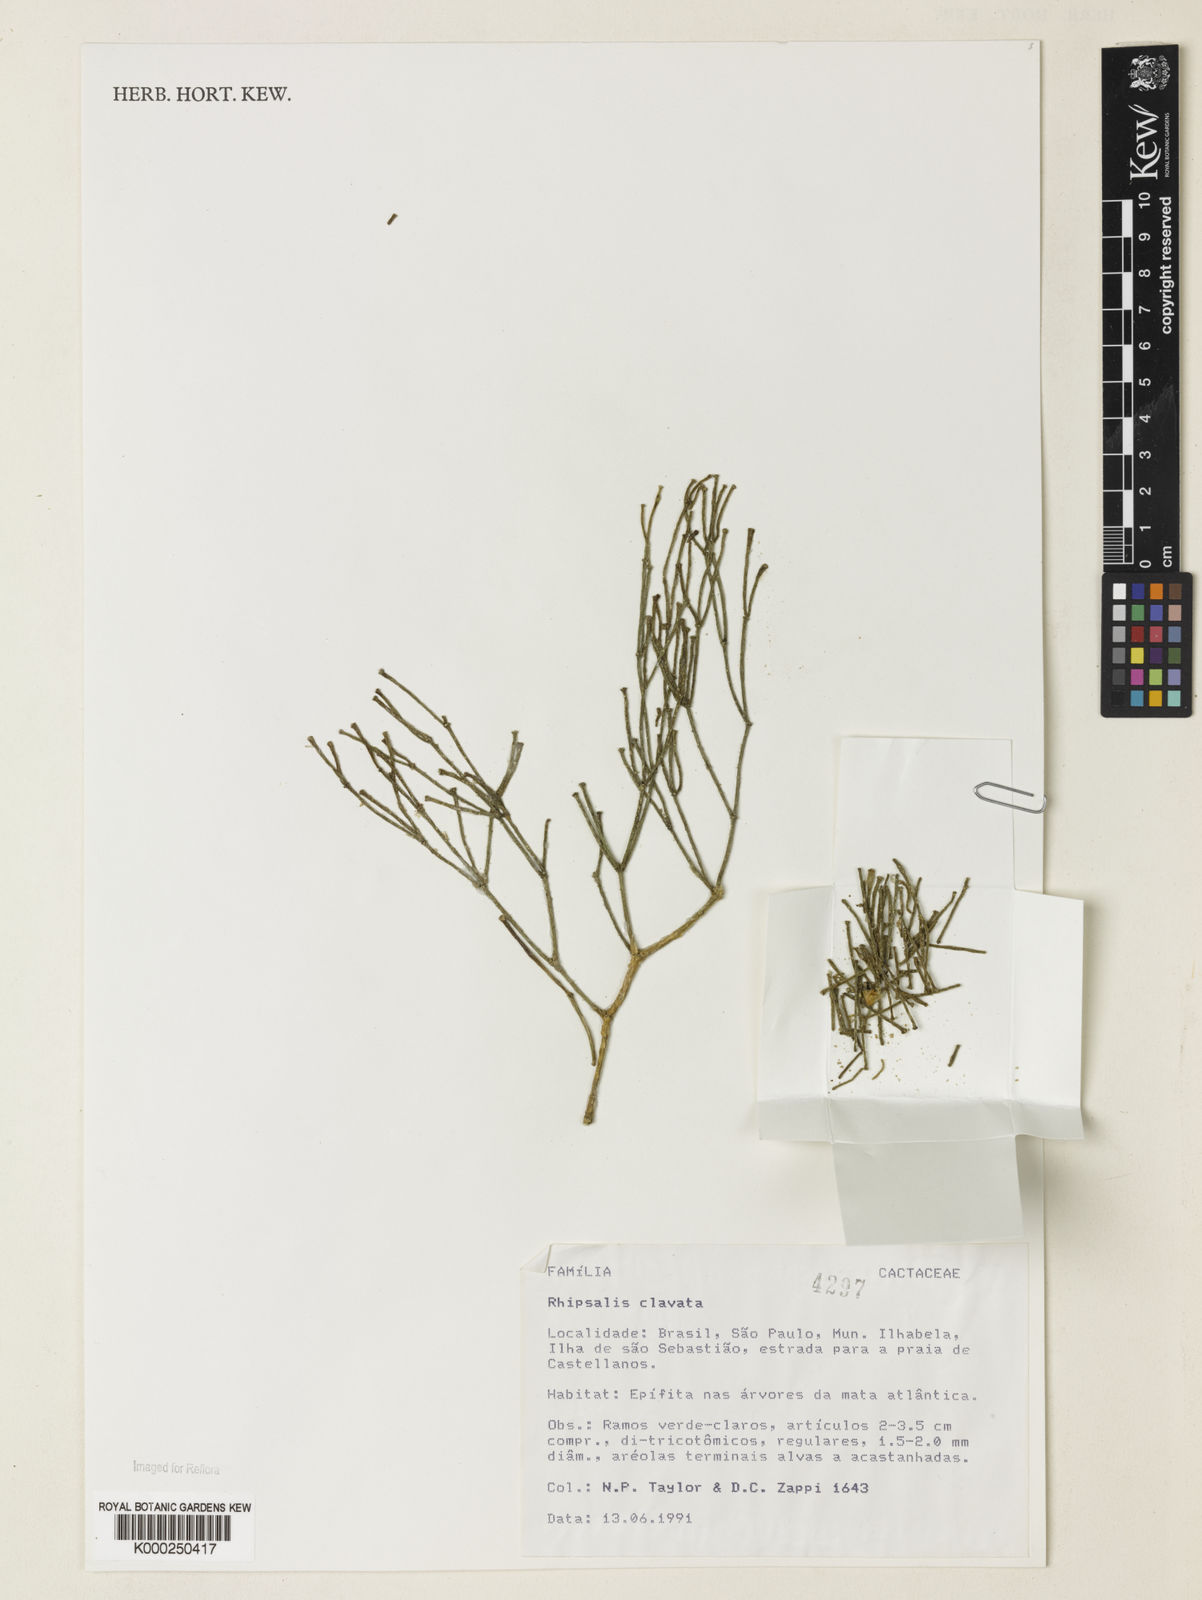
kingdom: Plantae
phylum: Tracheophyta
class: Magnoliopsida
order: Caryophyllales
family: Cactaceae
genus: Rhipsalis
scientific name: Rhipsalis clavata
